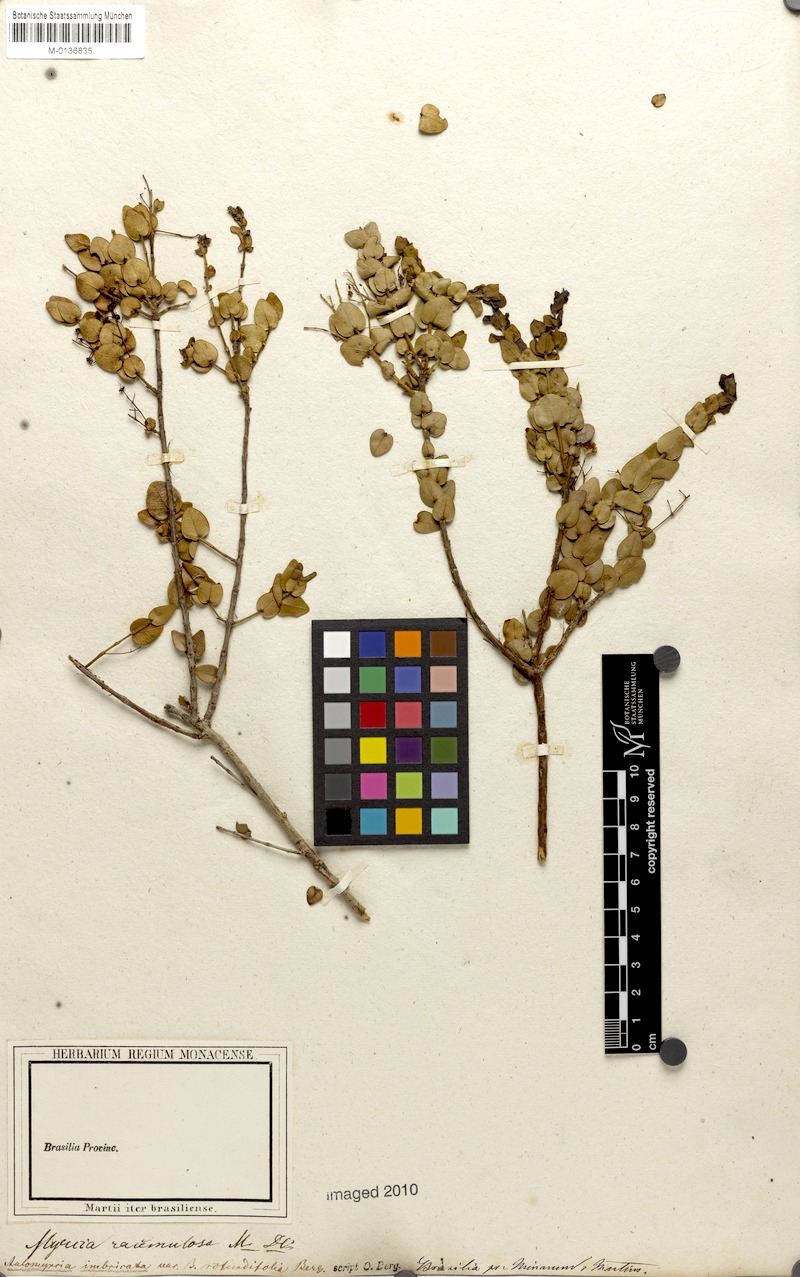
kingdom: Plantae
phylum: Tracheophyta
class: Magnoliopsida
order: Myrtales
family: Myrtaceae
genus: Myrcia
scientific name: Myrcia racemulosa
